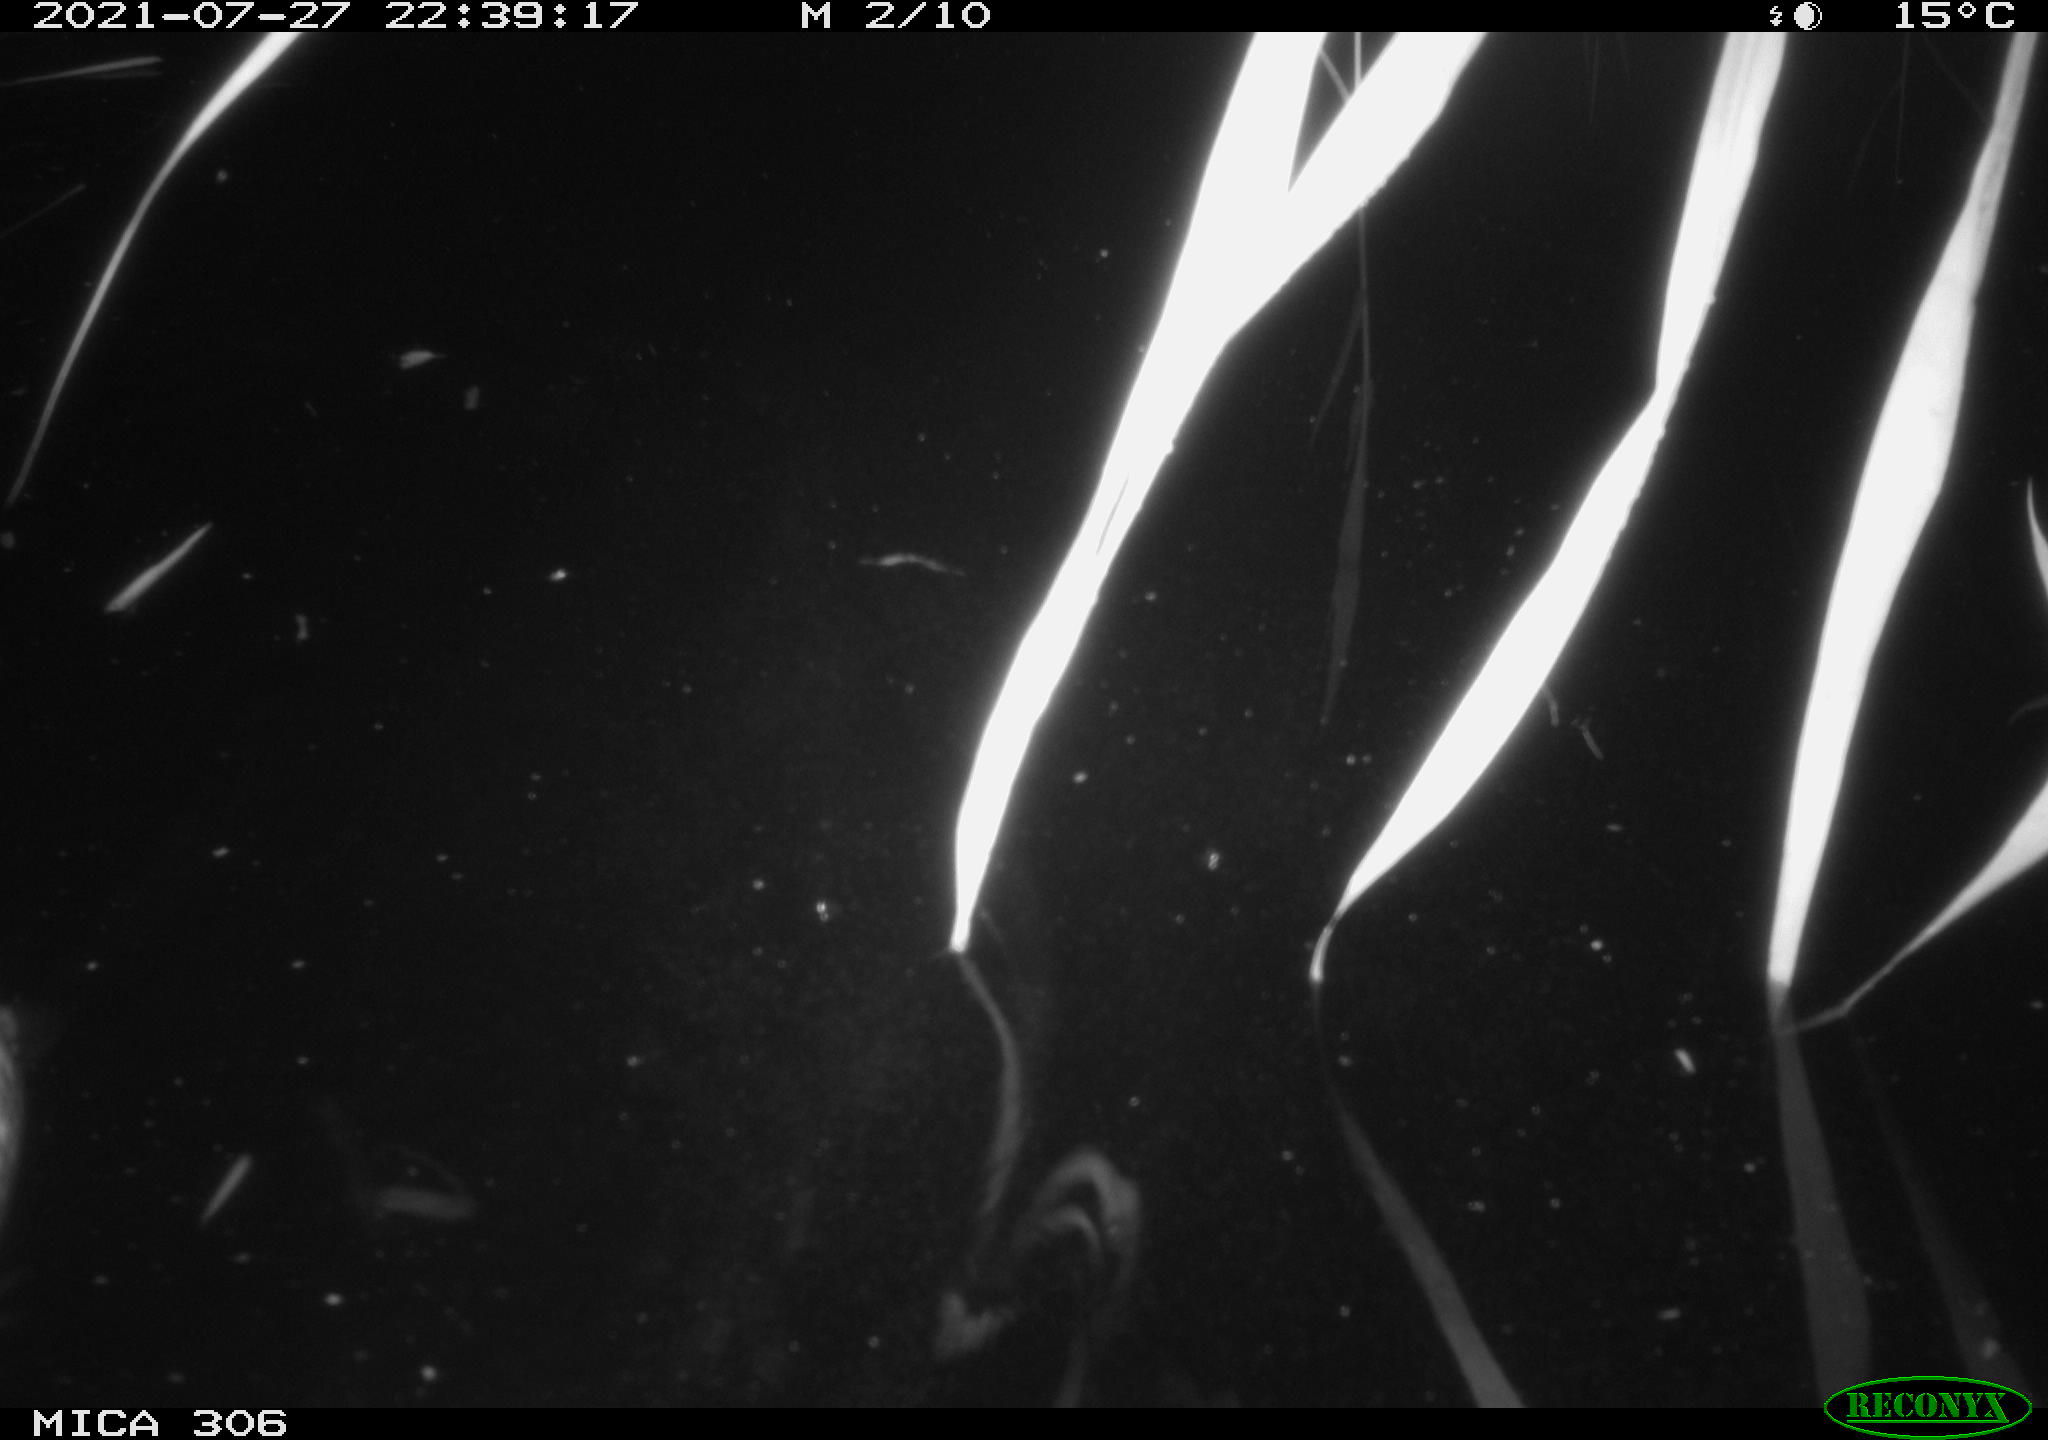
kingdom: Animalia
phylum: Chordata
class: Aves
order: Anseriformes
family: Anatidae
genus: Anas
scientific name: Anas platyrhynchos
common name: Mallard
